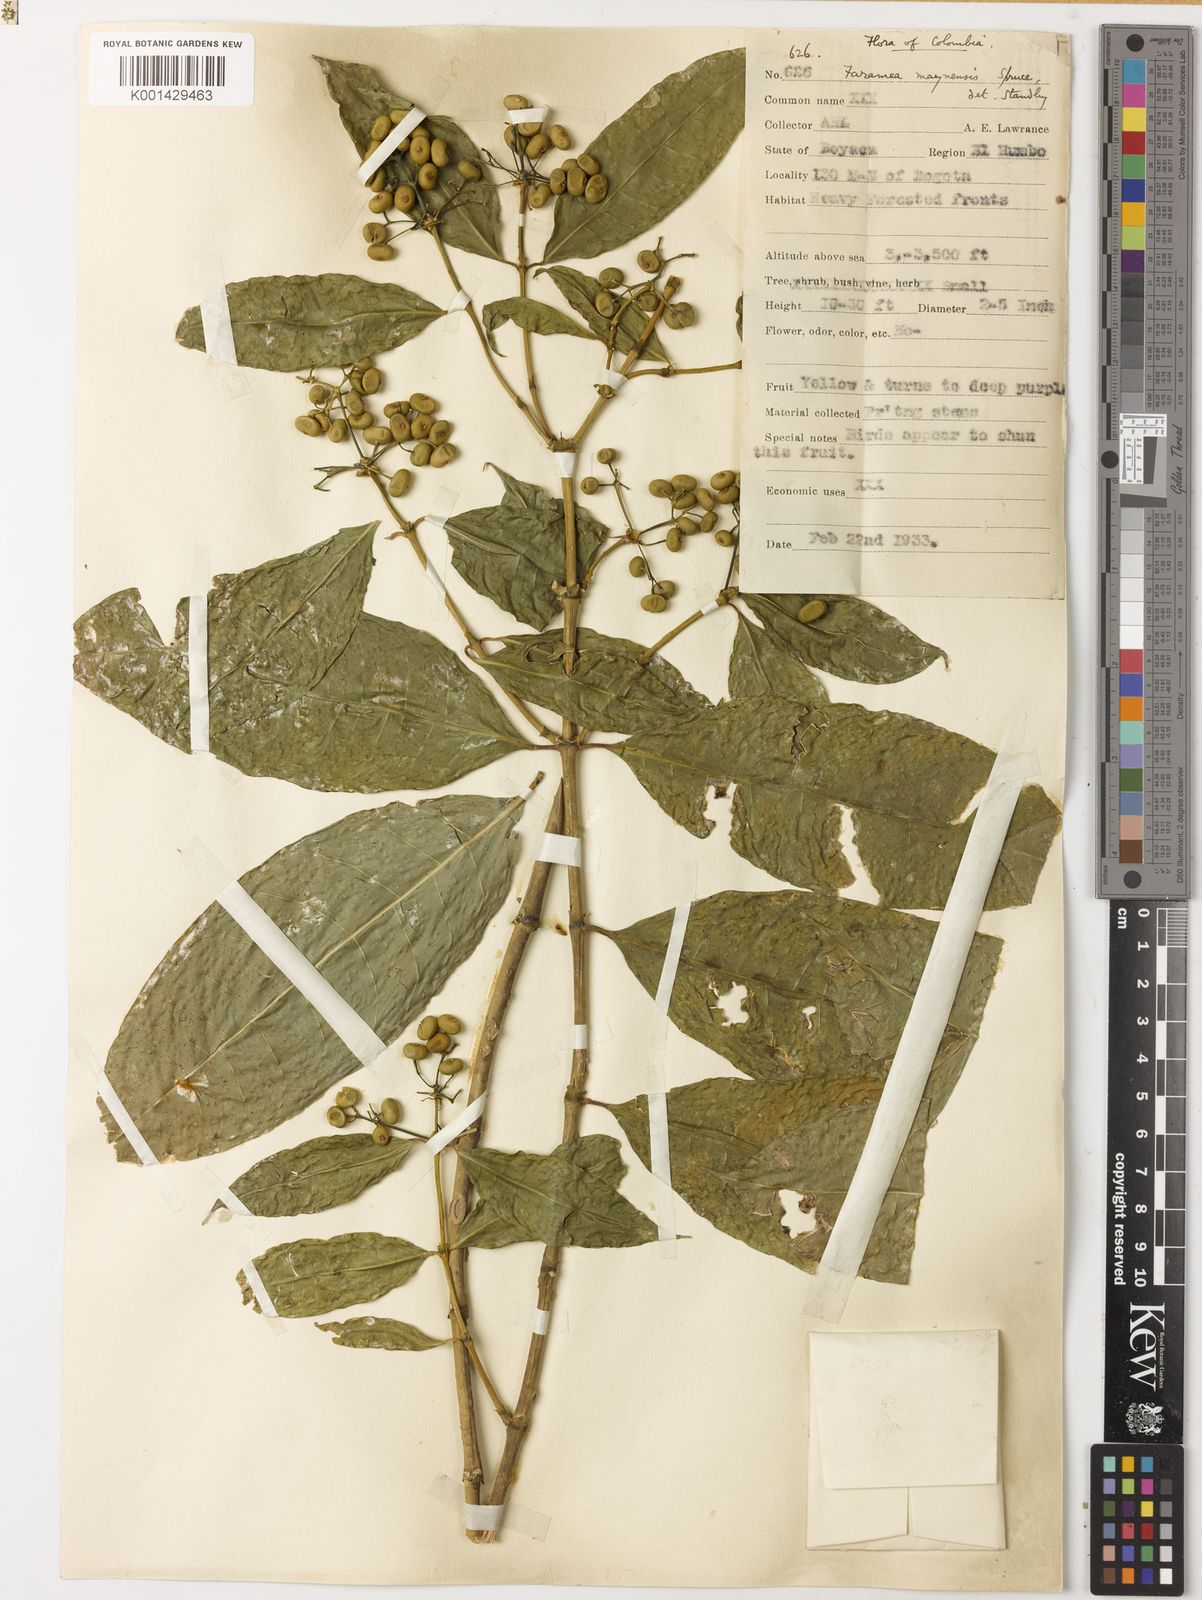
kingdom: Plantae
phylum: Tracheophyta
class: Magnoliopsida
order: Gentianales
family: Rubiaceae
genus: Faramea
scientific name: Faramea multiflora
